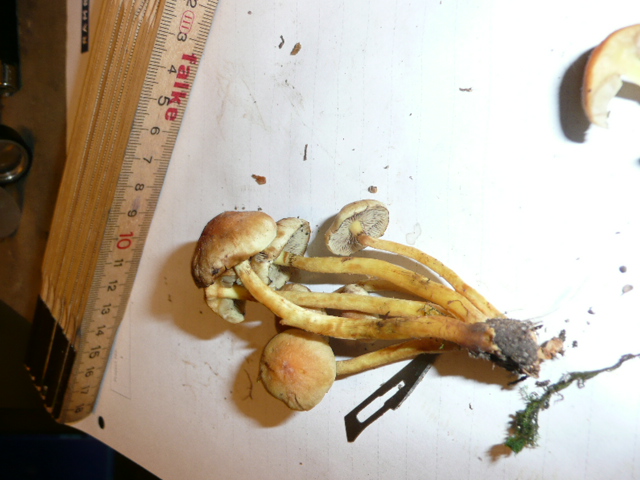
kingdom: Fungi
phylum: Basidiomycota
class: Agaricomycetes
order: Agaricales
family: Strophariaceae
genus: Hypholoma
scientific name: Hypholoma fasciculare
